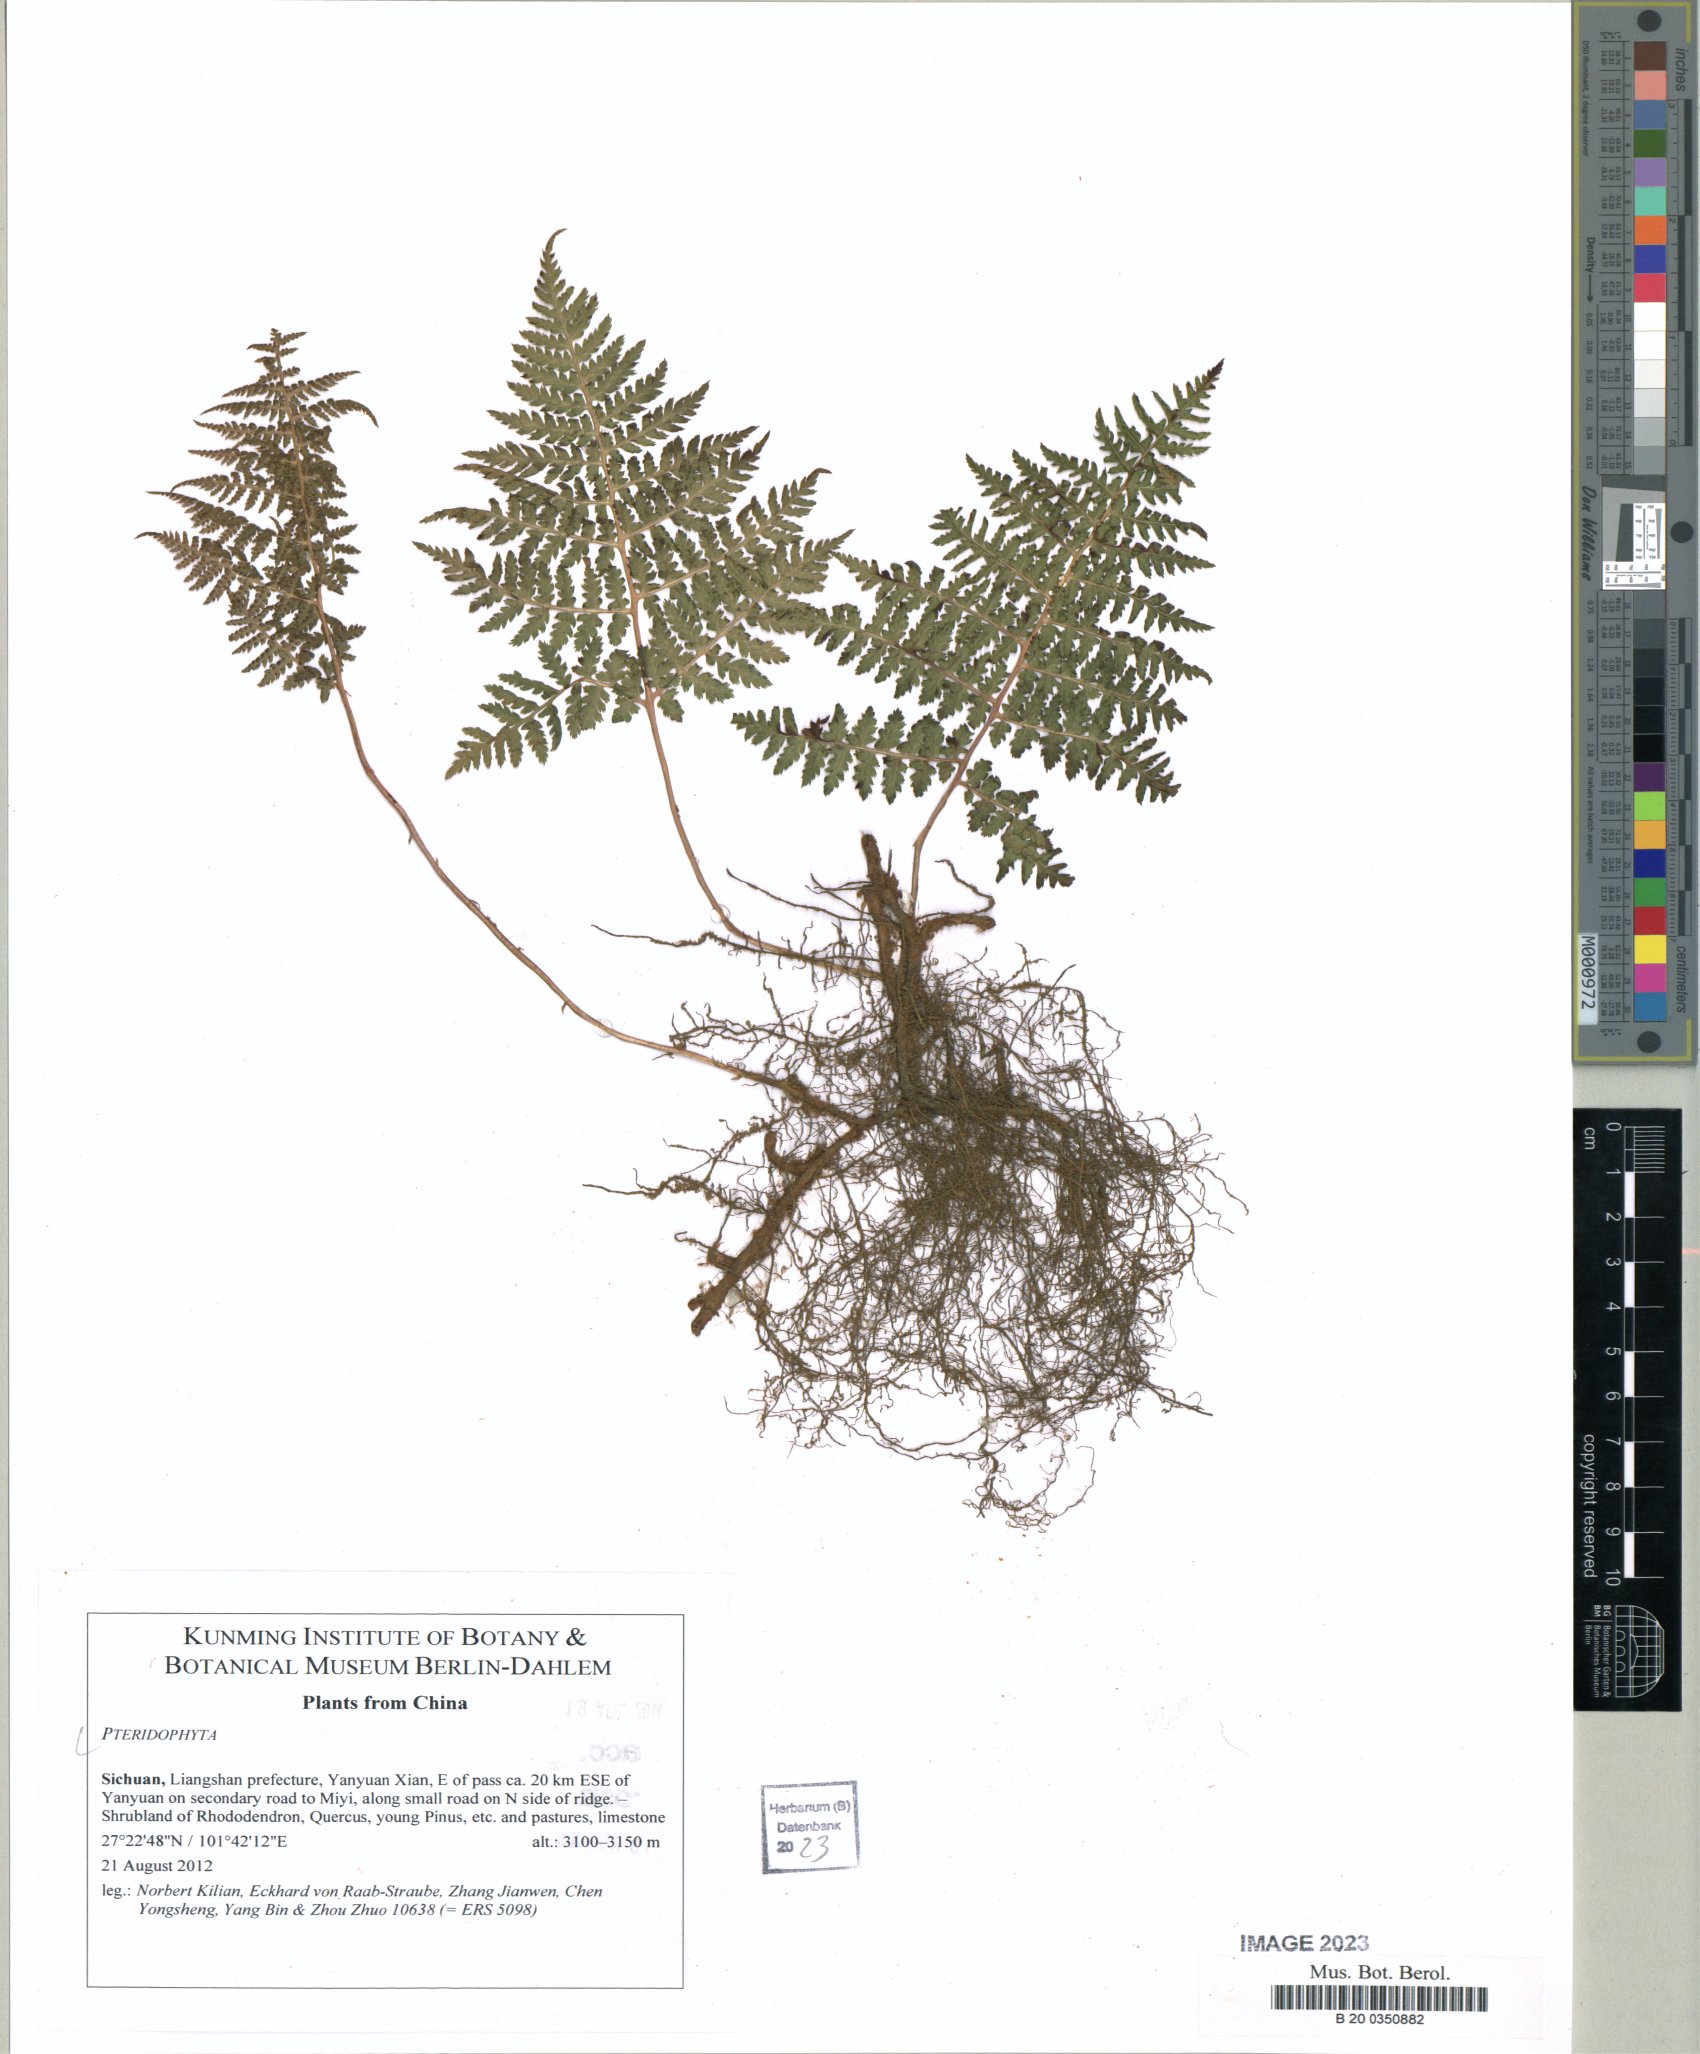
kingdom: Plantae
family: Pteridophyta
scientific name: Pteridophyta
